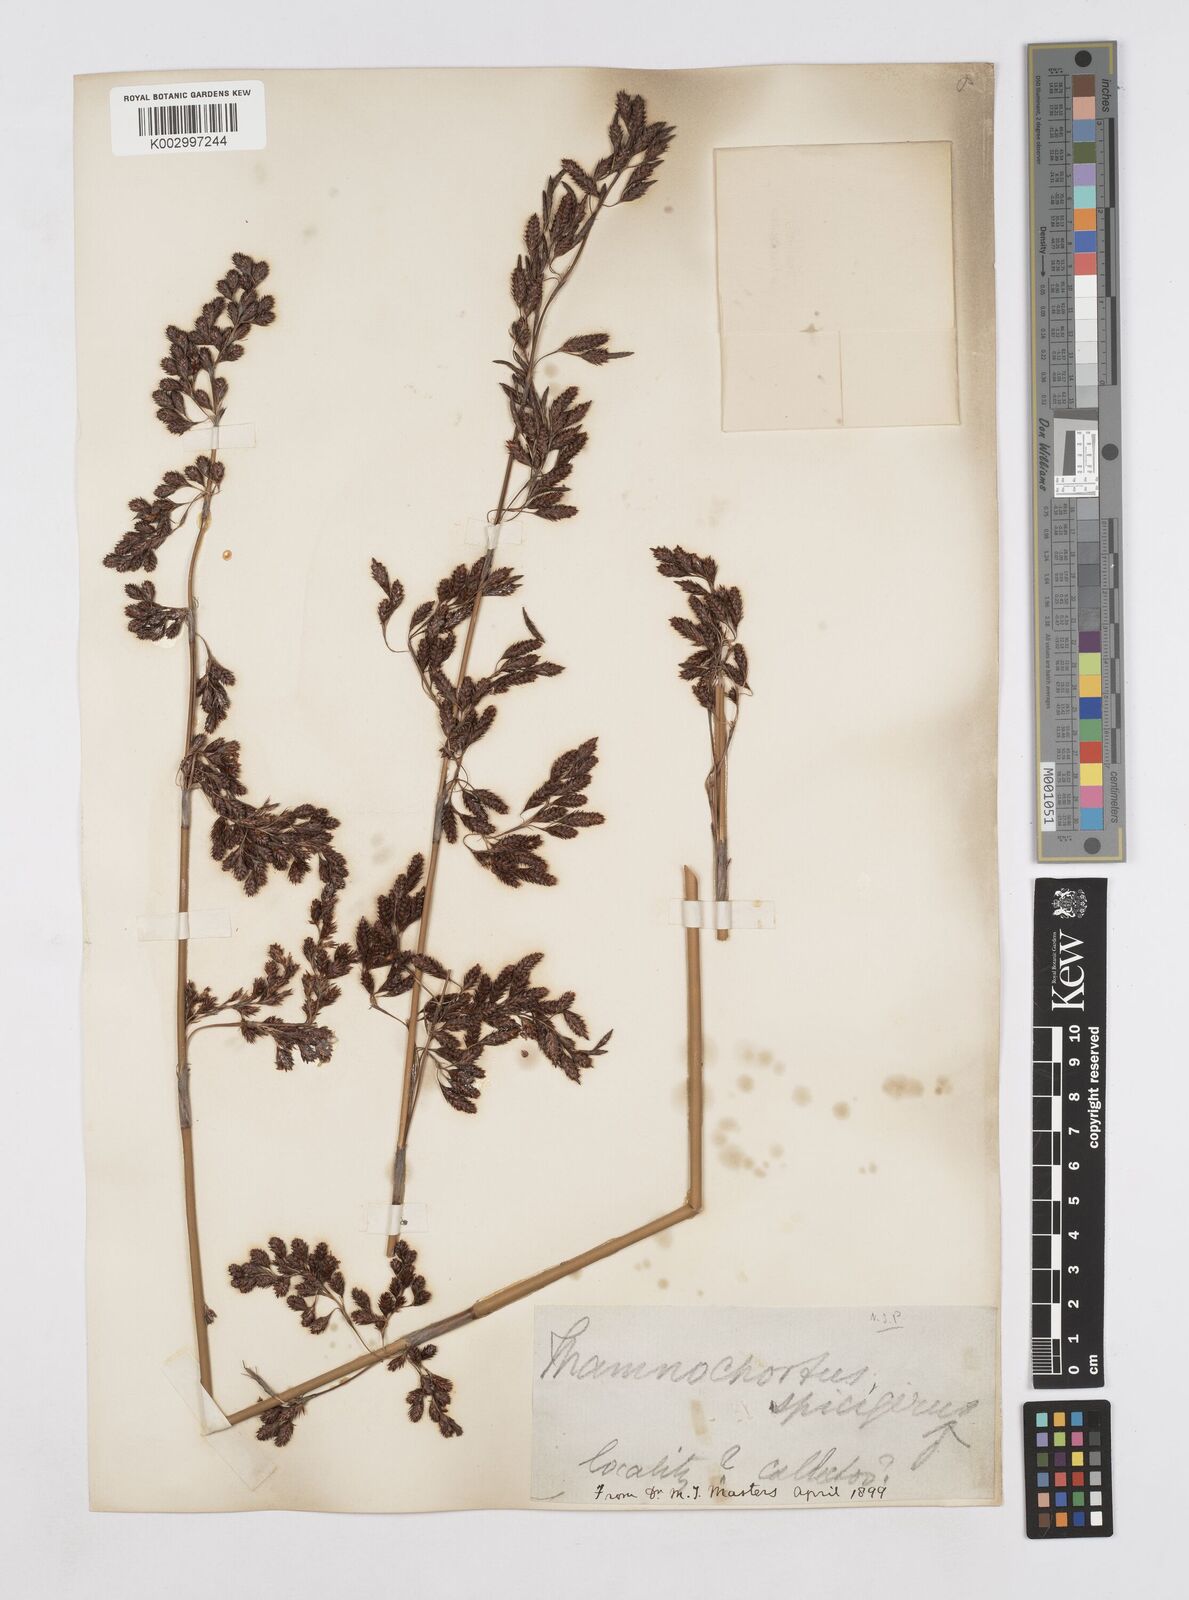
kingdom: Plantae
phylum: Tracheophyta
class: Liliopsida
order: Poales
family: Restionaceae
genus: Thamnochortus
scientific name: Thamnochortus spicigerus
